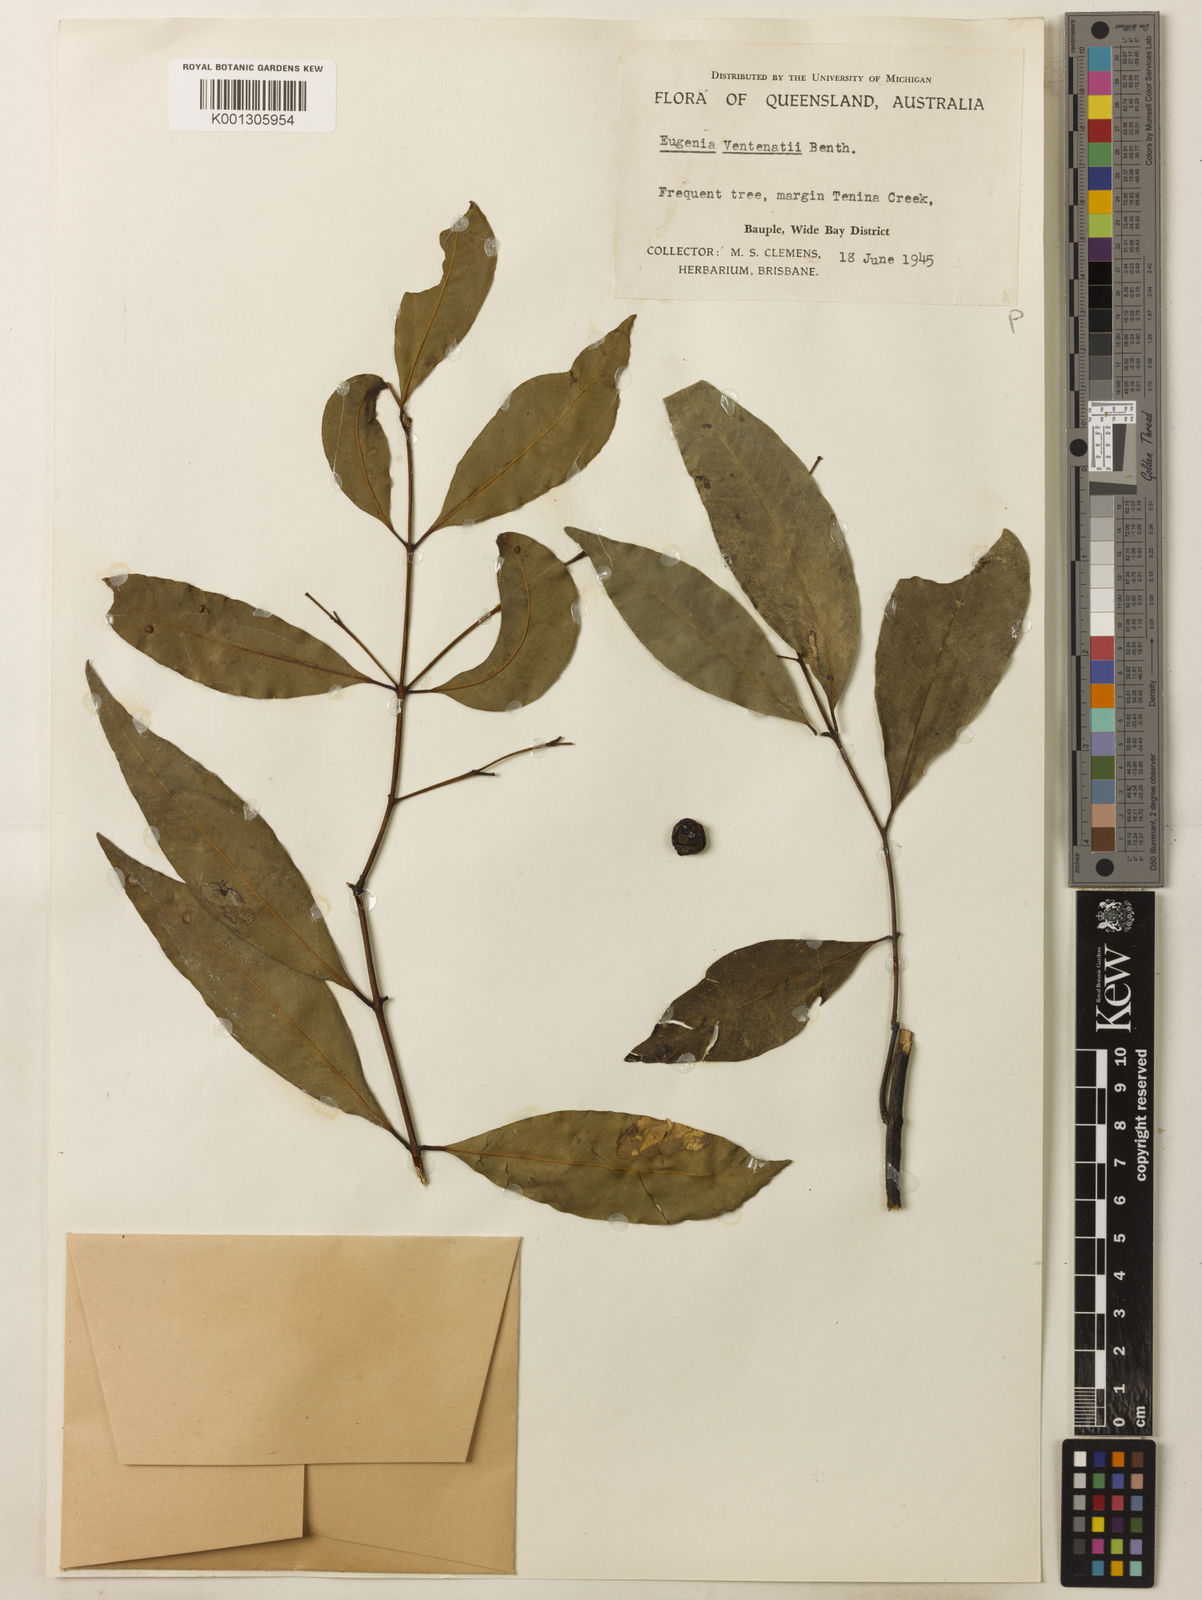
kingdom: Plantae
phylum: Tracheophyta
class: Magnoliopsida
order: Myrtales
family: Myrtaceae
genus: Syzygium
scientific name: Syzygium floribundum
